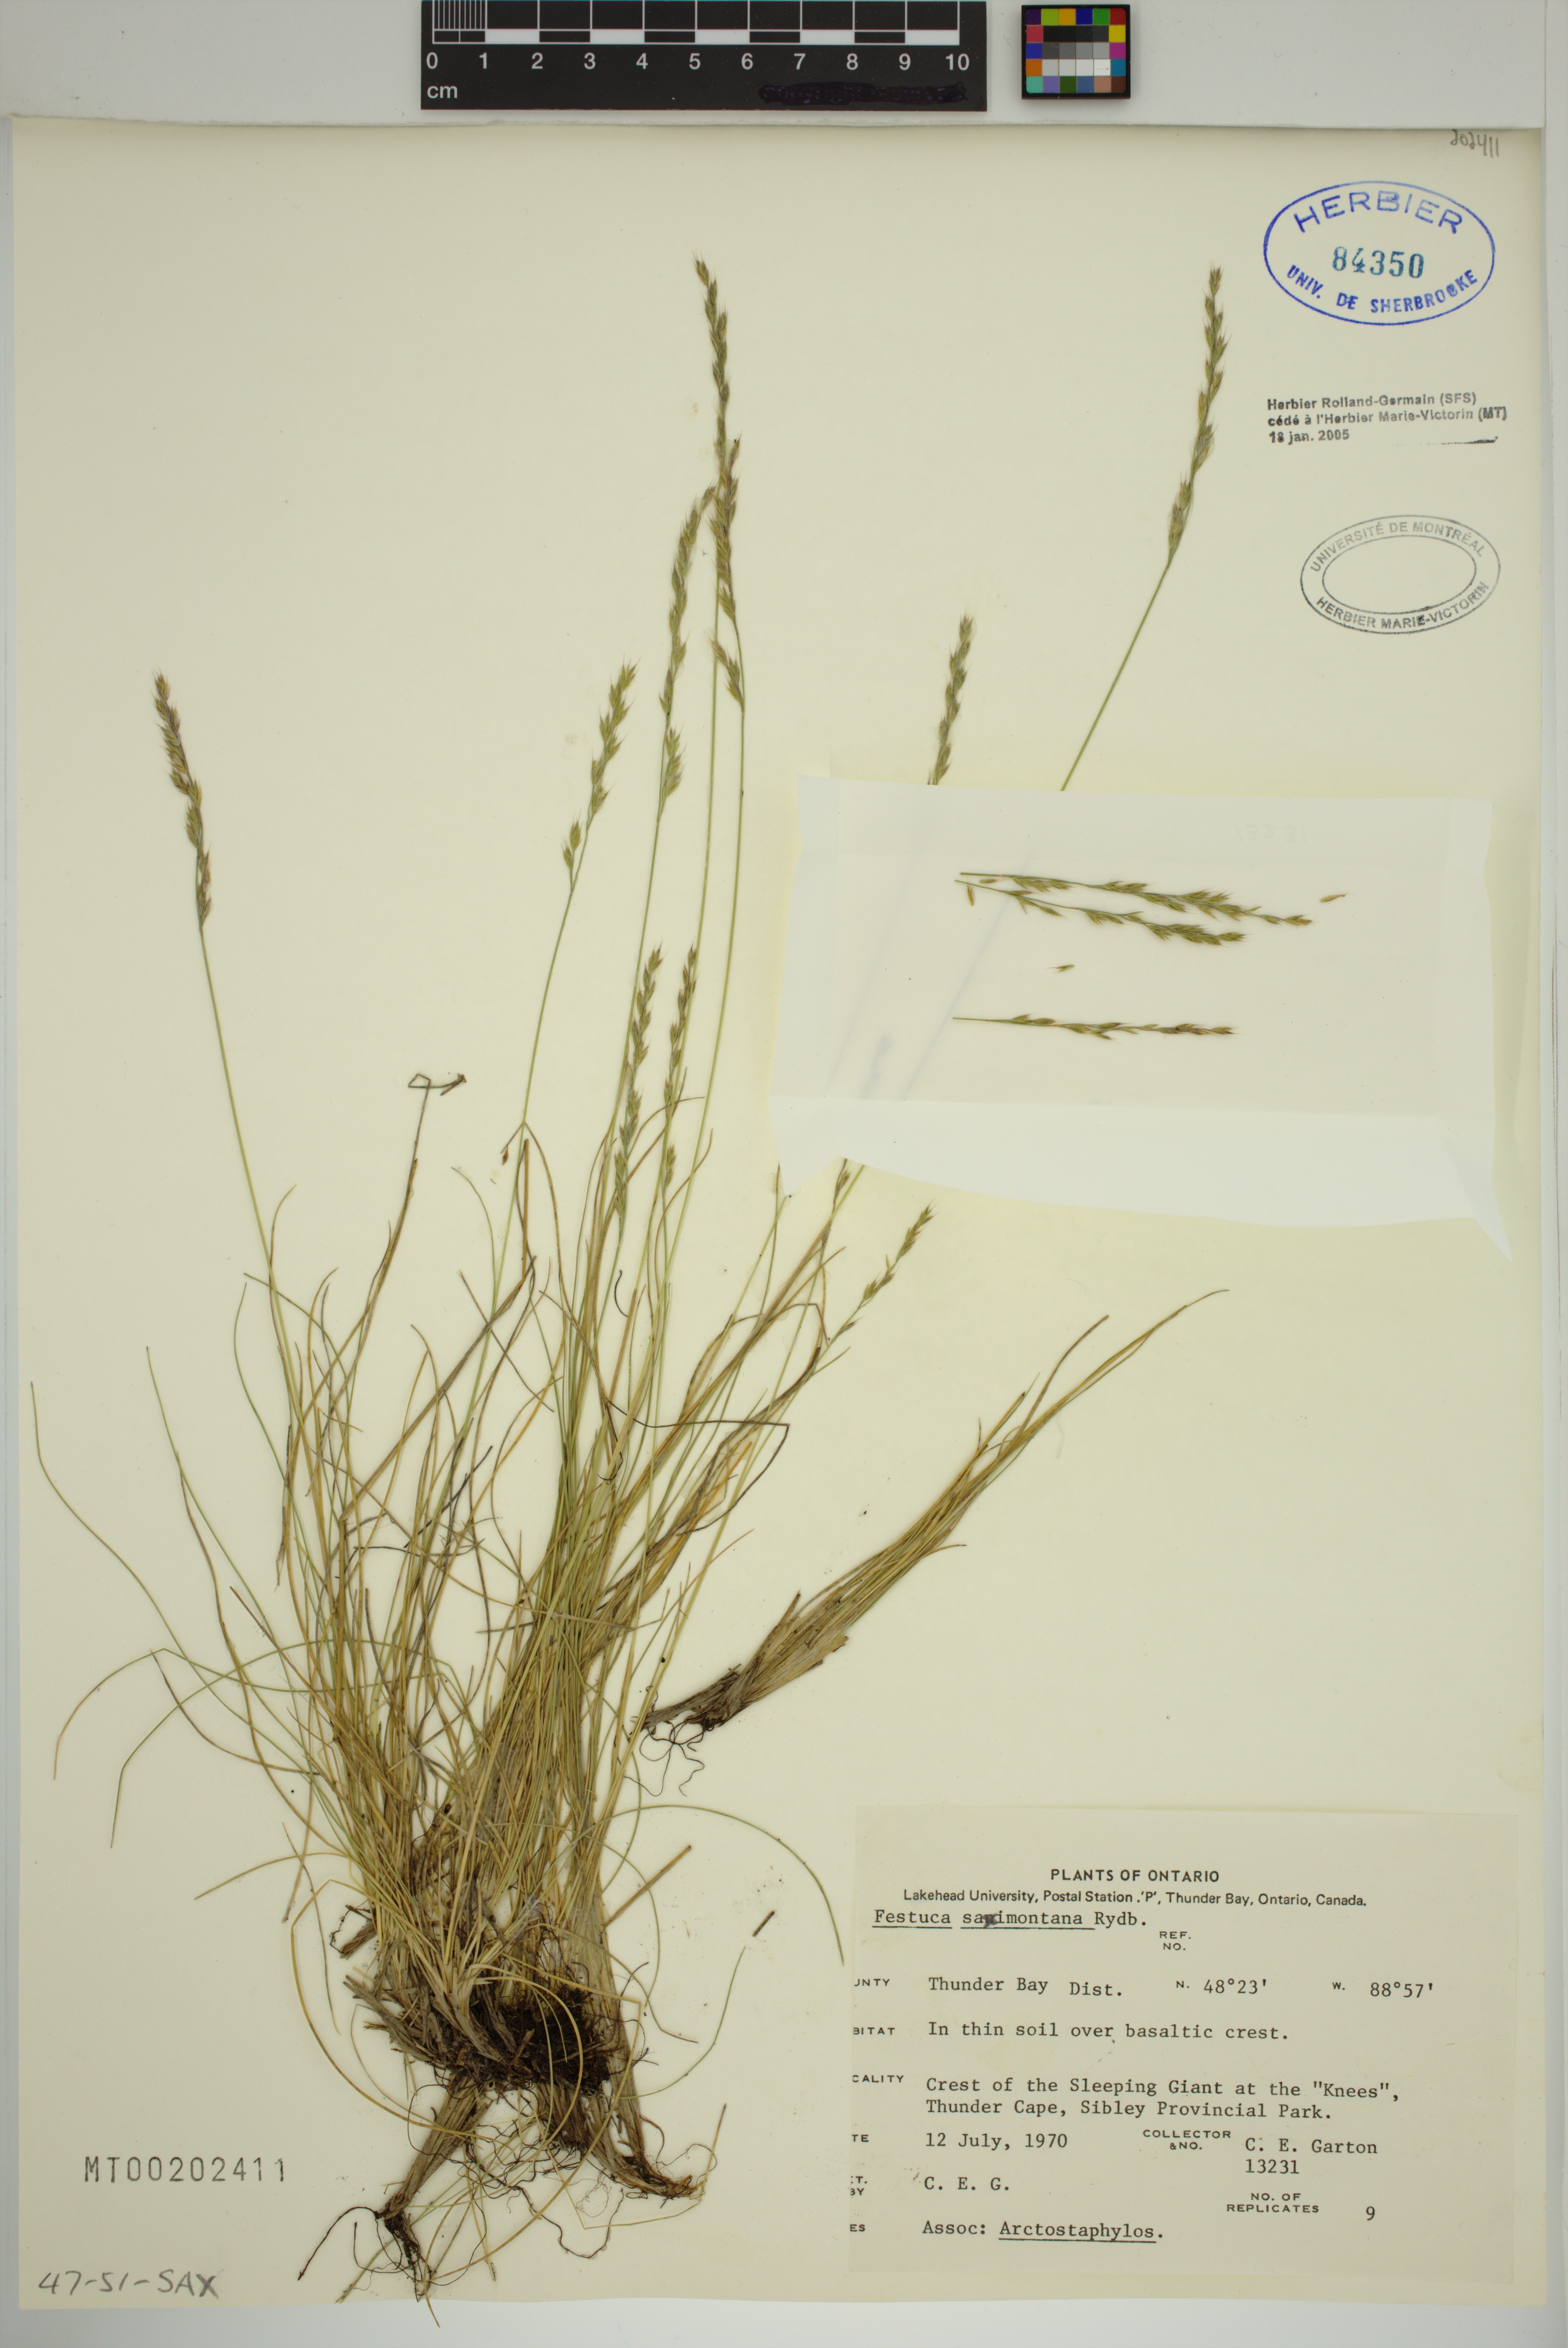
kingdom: Plantae
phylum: Tracheophyta
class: Liliopsida
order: Poales
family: Poaceae
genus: Festuca
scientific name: Festuca saximontana
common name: Mountain fescue
